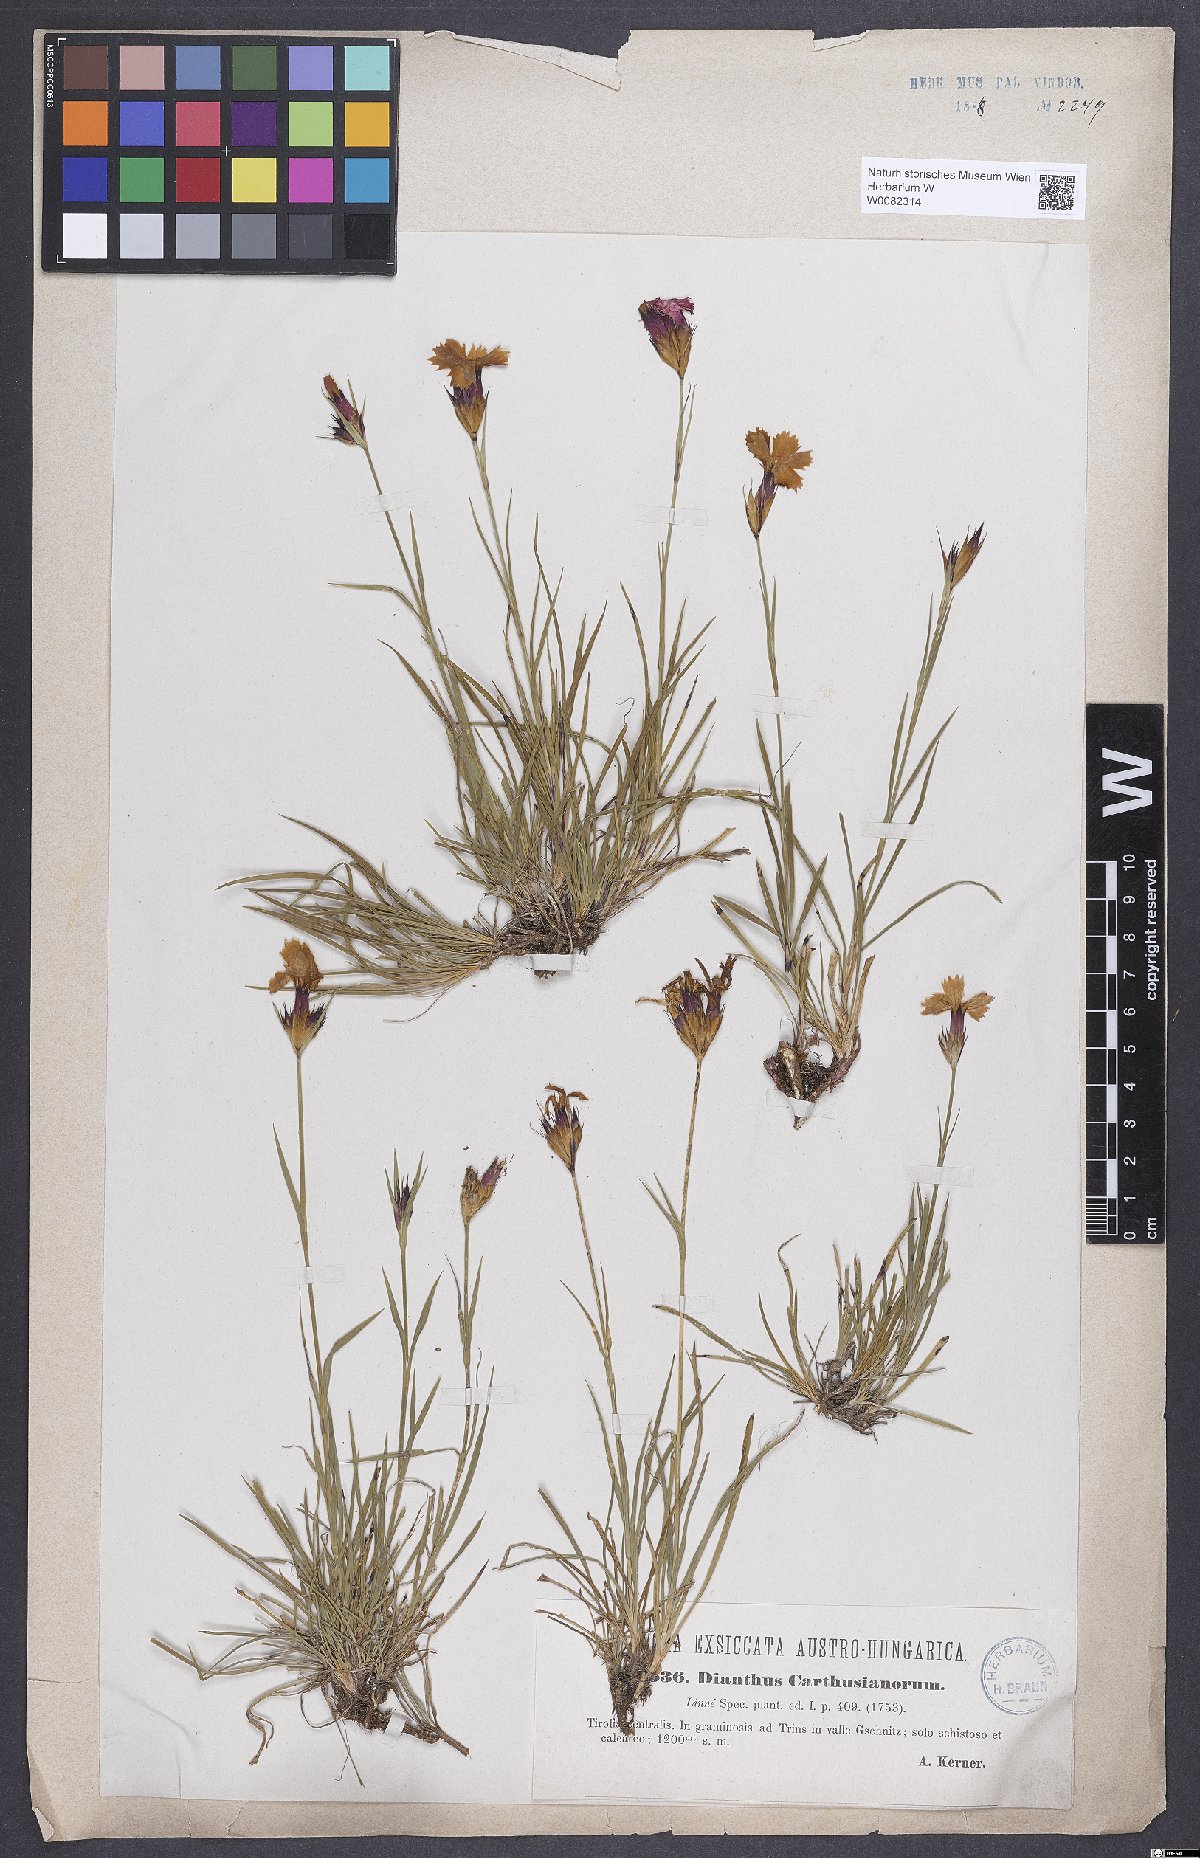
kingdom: Plantae
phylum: Tracheophyta
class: Magnoliopsida
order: Caryophyllales
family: Caryophyllaceae
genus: Dianthus
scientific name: Dianthus carthusianorum
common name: Carthusian pink
